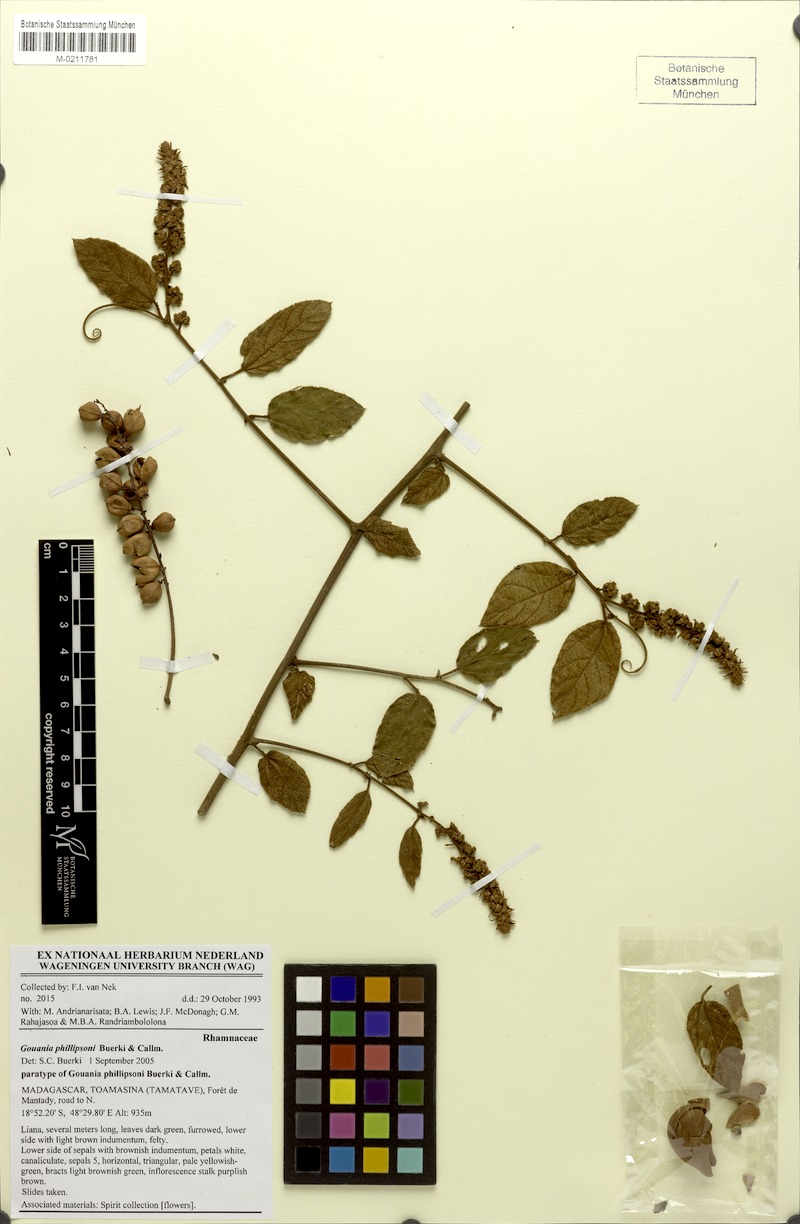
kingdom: Plantae
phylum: Tracheophyta
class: Magnoliopsida
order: Rosales
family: Rhamnaceae
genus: Gouania
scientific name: Gouania phillipsonii
